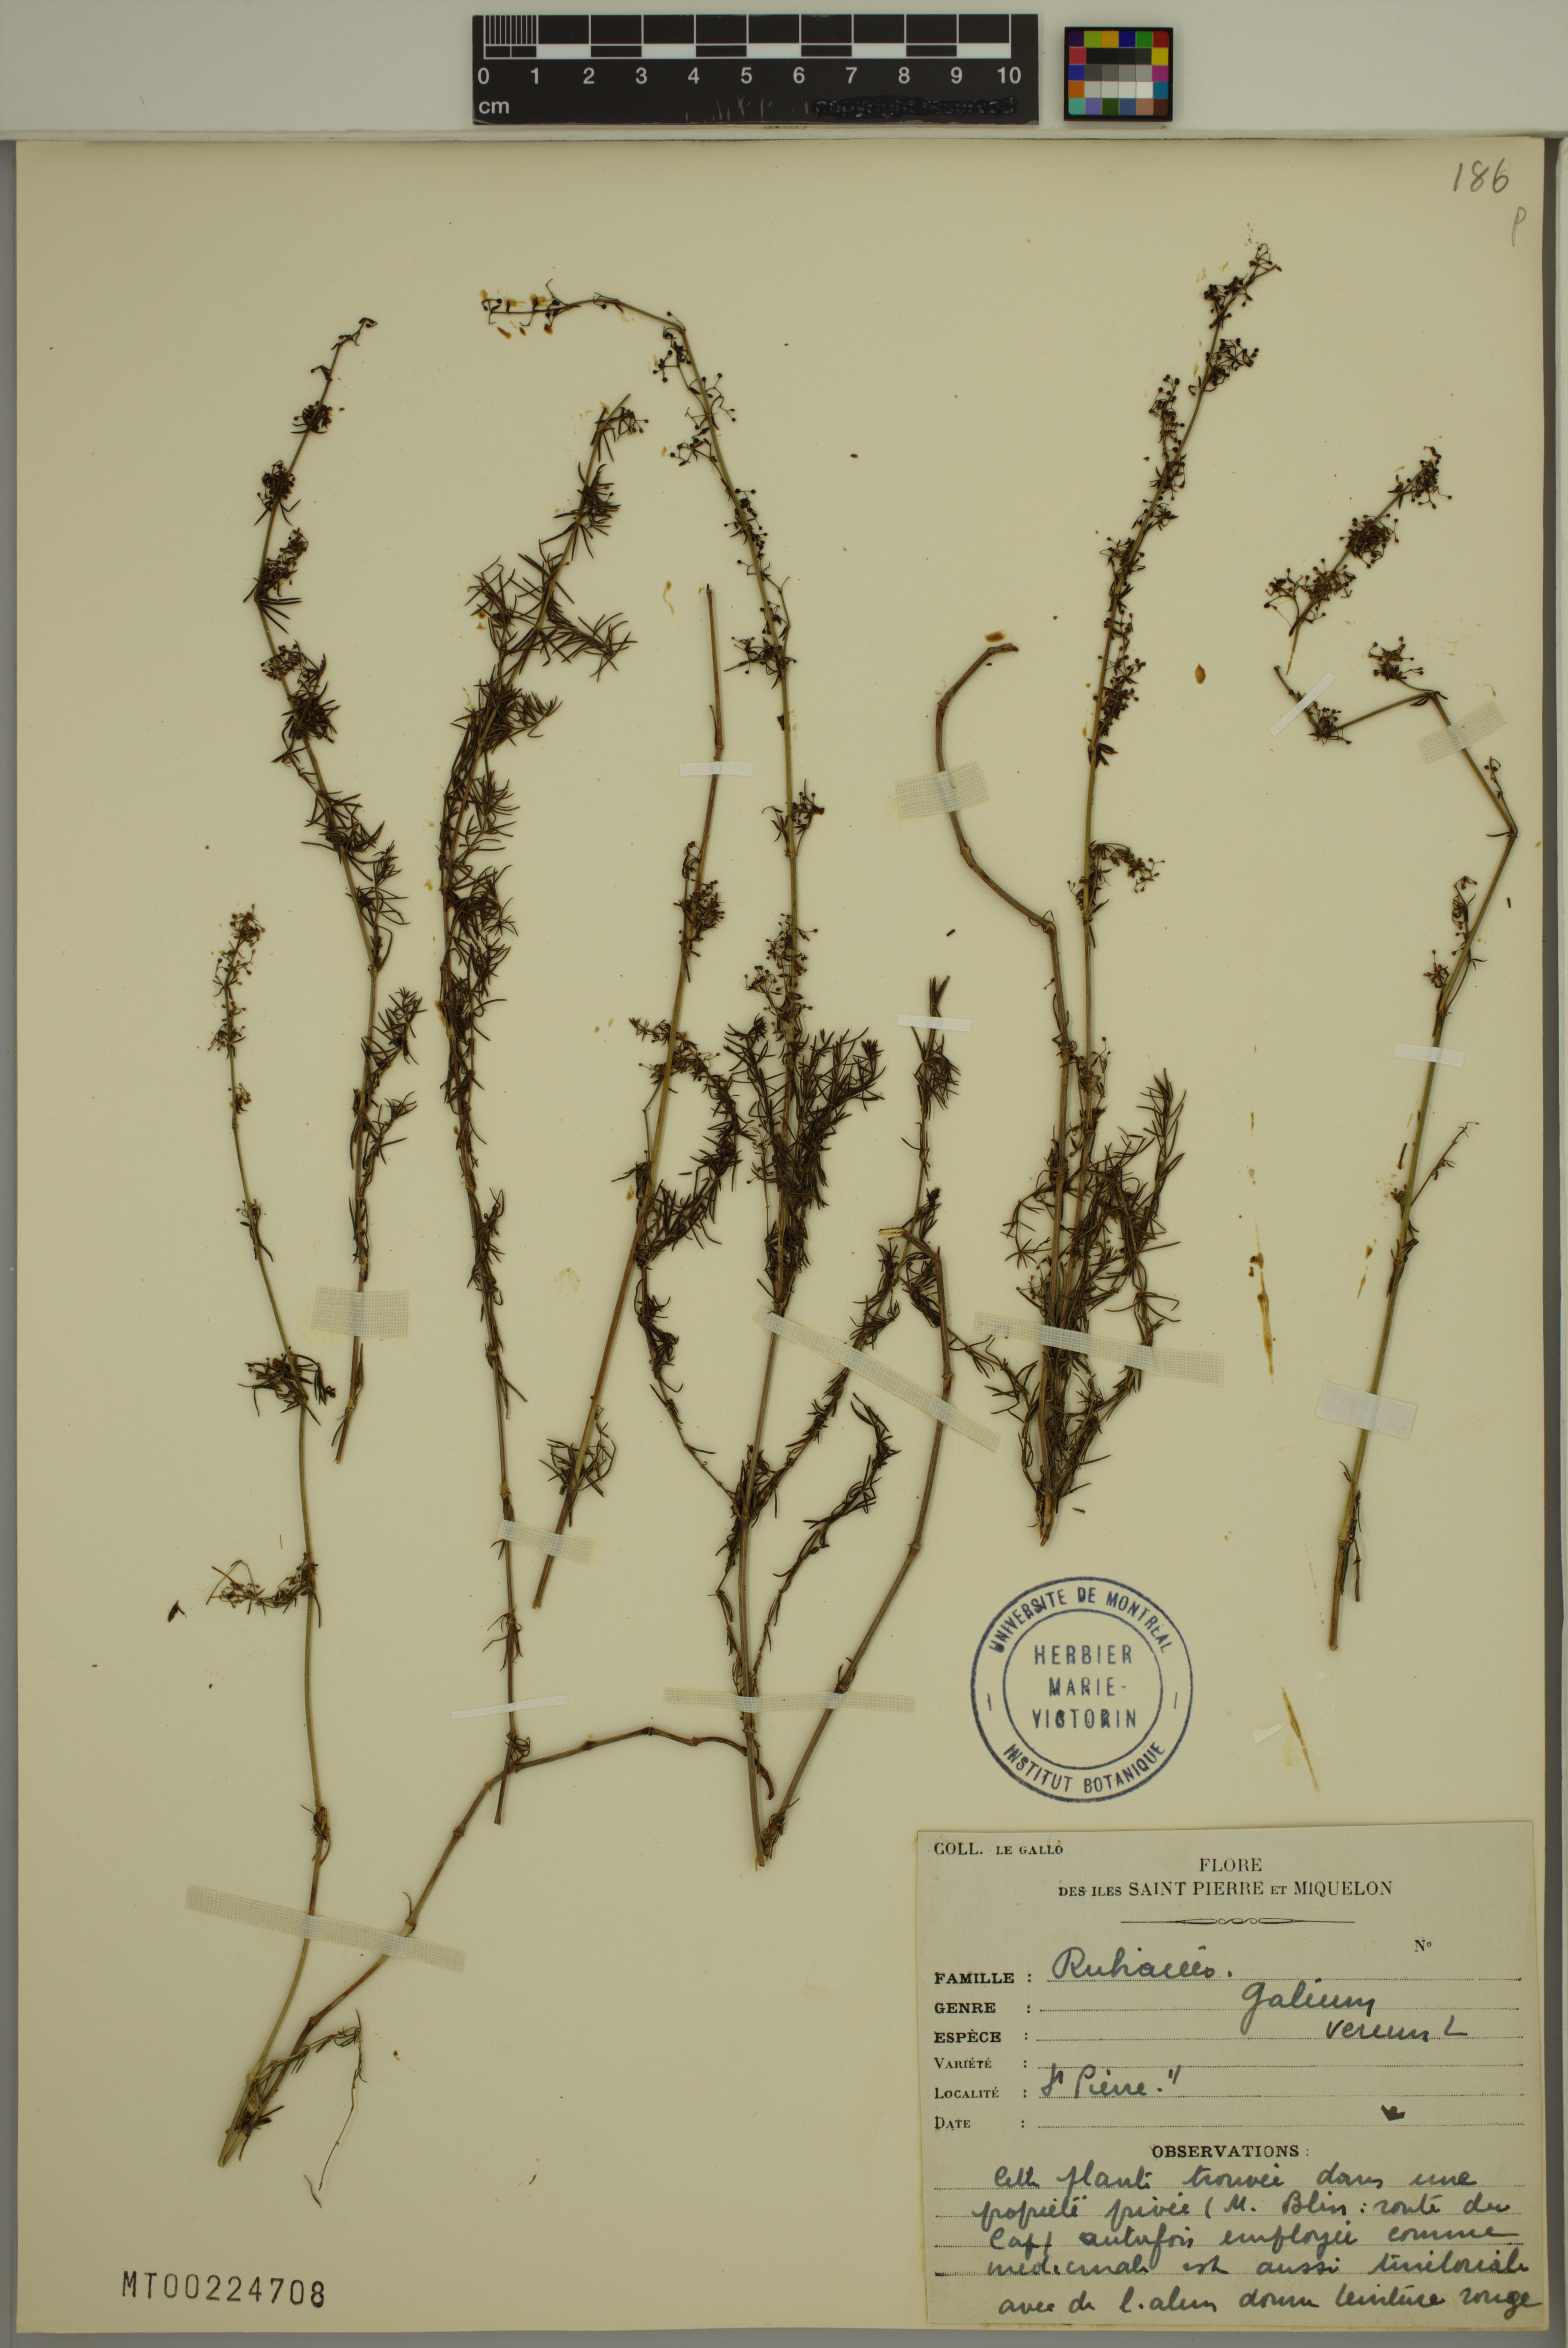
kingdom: Plantae
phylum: Tracheophyta
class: Magnoliopsida
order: Gentianales
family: Rubiaceae
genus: Galium
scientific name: Galium verum
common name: Lady's bedstraw
